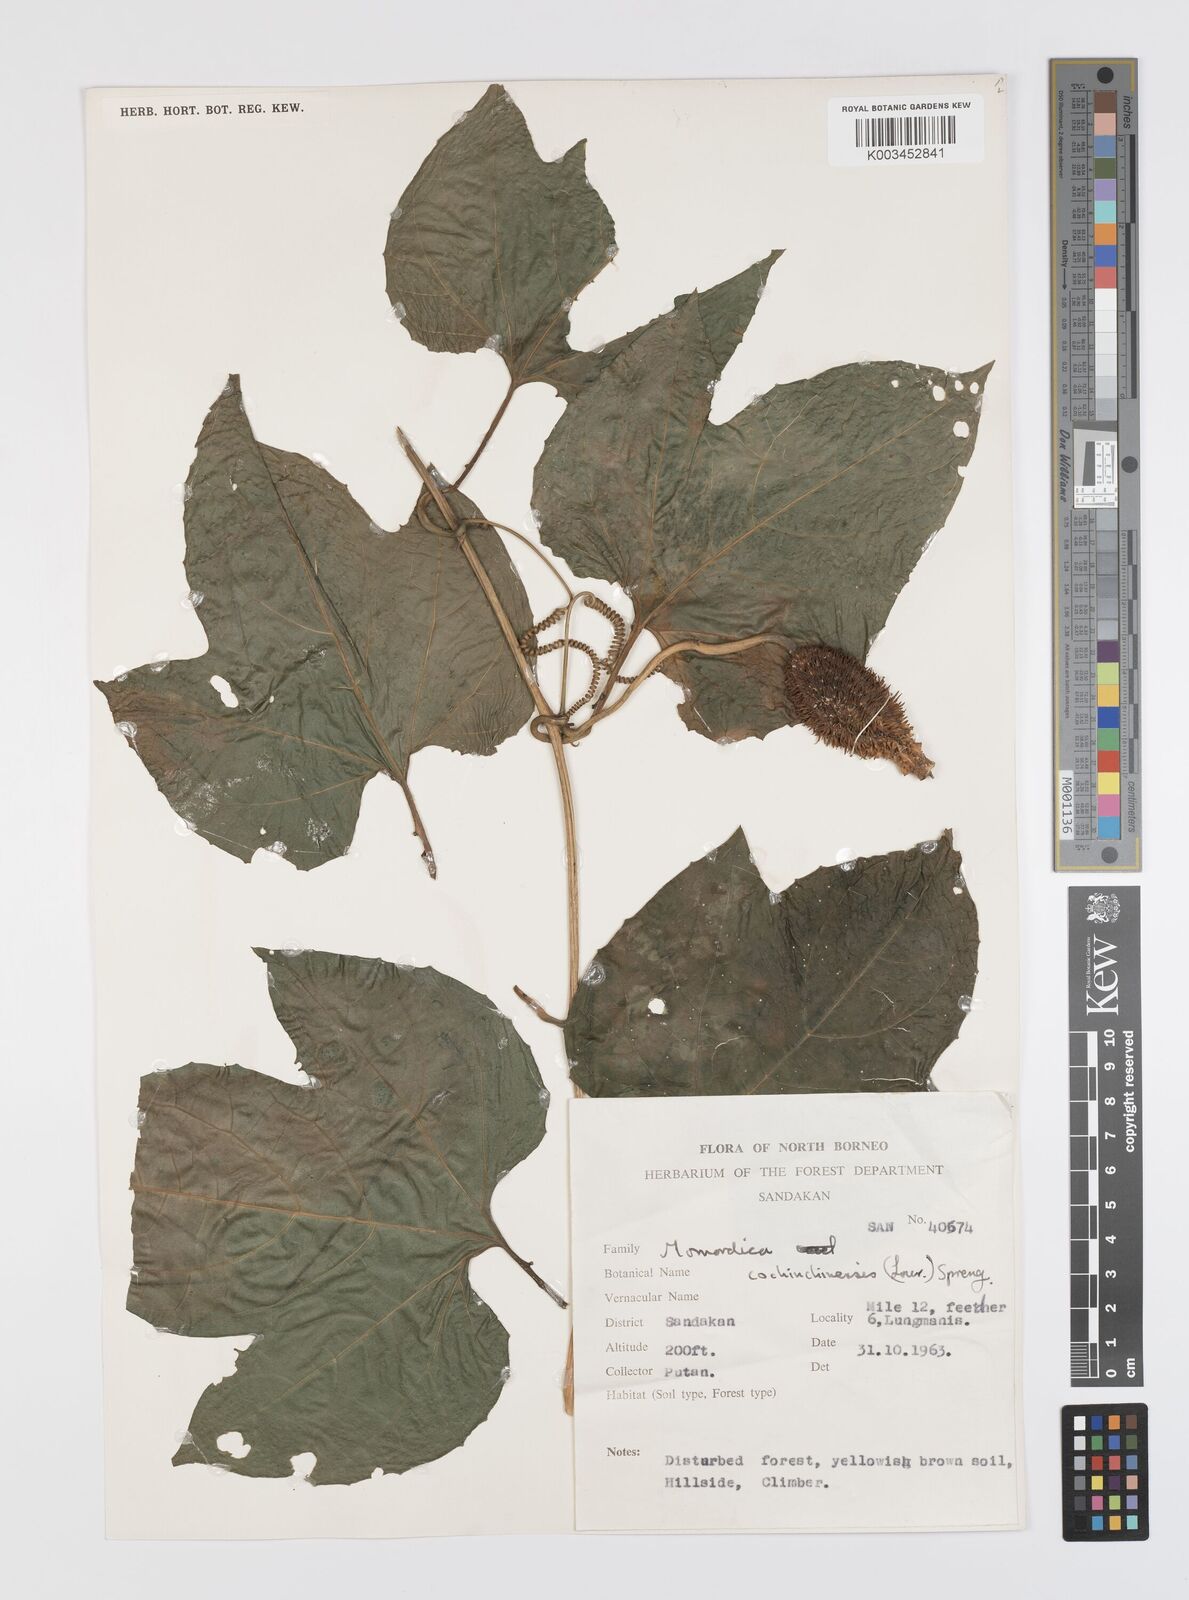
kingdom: Plantae
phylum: Tracheophyta
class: Magnoliopsida
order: Cucurbitales
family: Cucurbitaceae
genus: Momordica
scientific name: Momordica cochinchinensis
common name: Chinese bitter-cucumber
